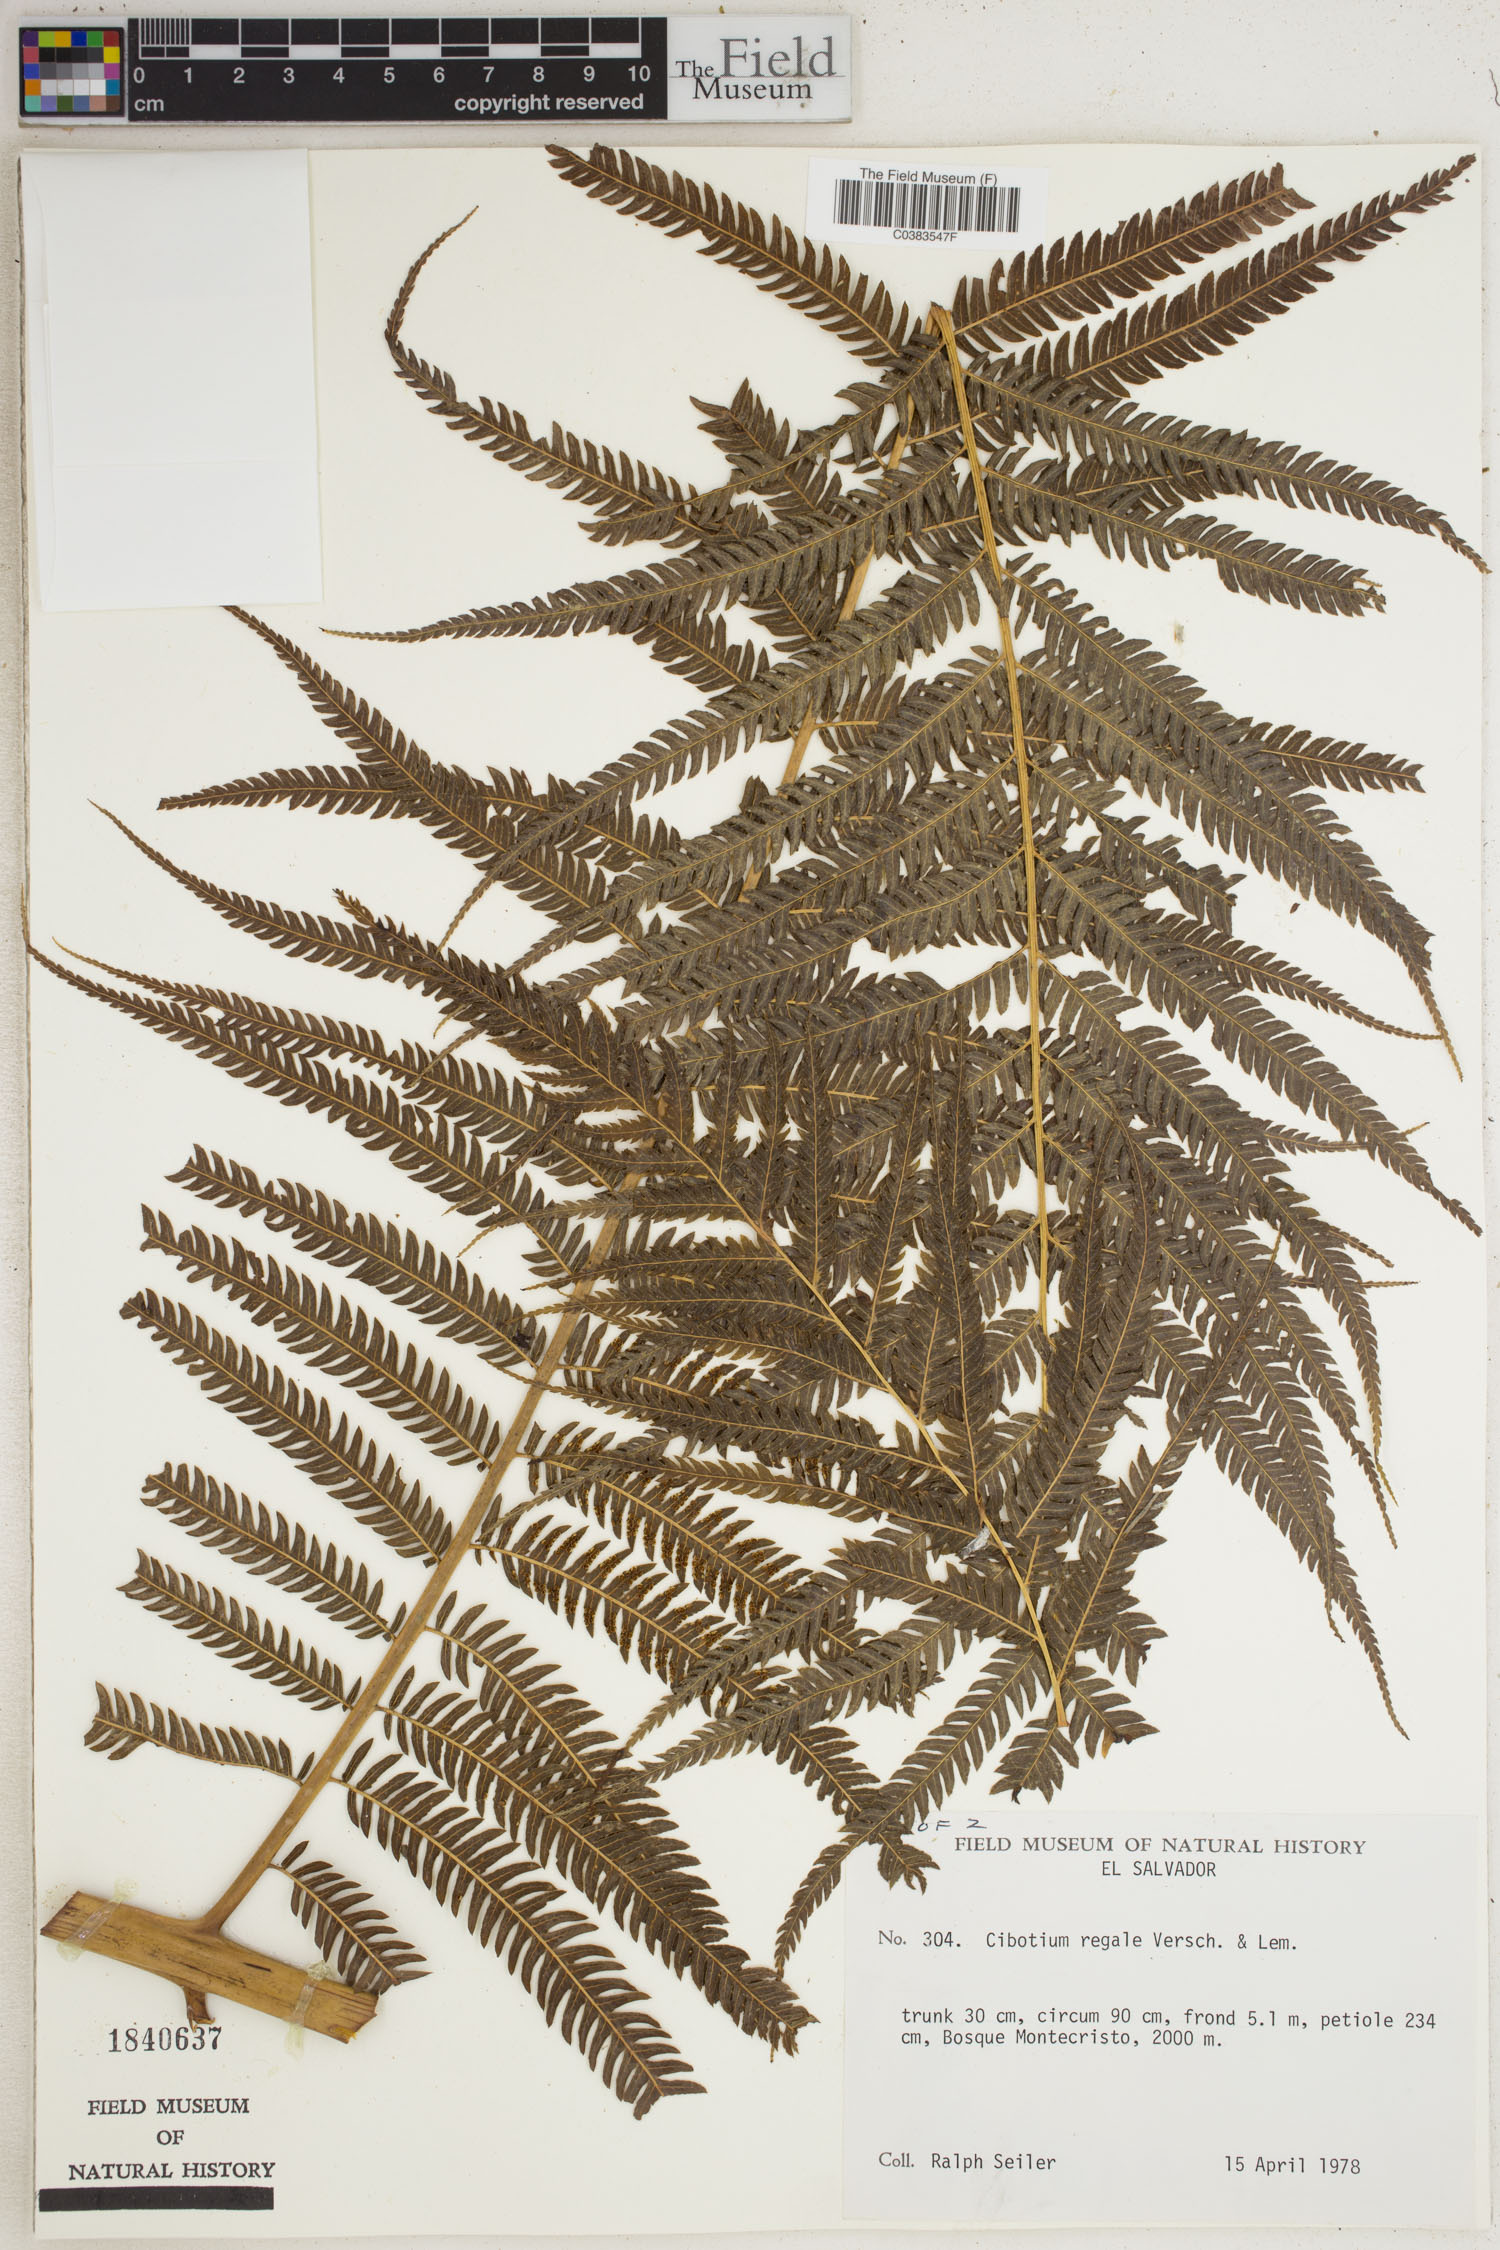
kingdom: Plantae
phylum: Tracheophyta
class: Polypodiopsida
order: Cyatheales
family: Cibotiaceae
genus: Cibotium
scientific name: Cibotium regale
